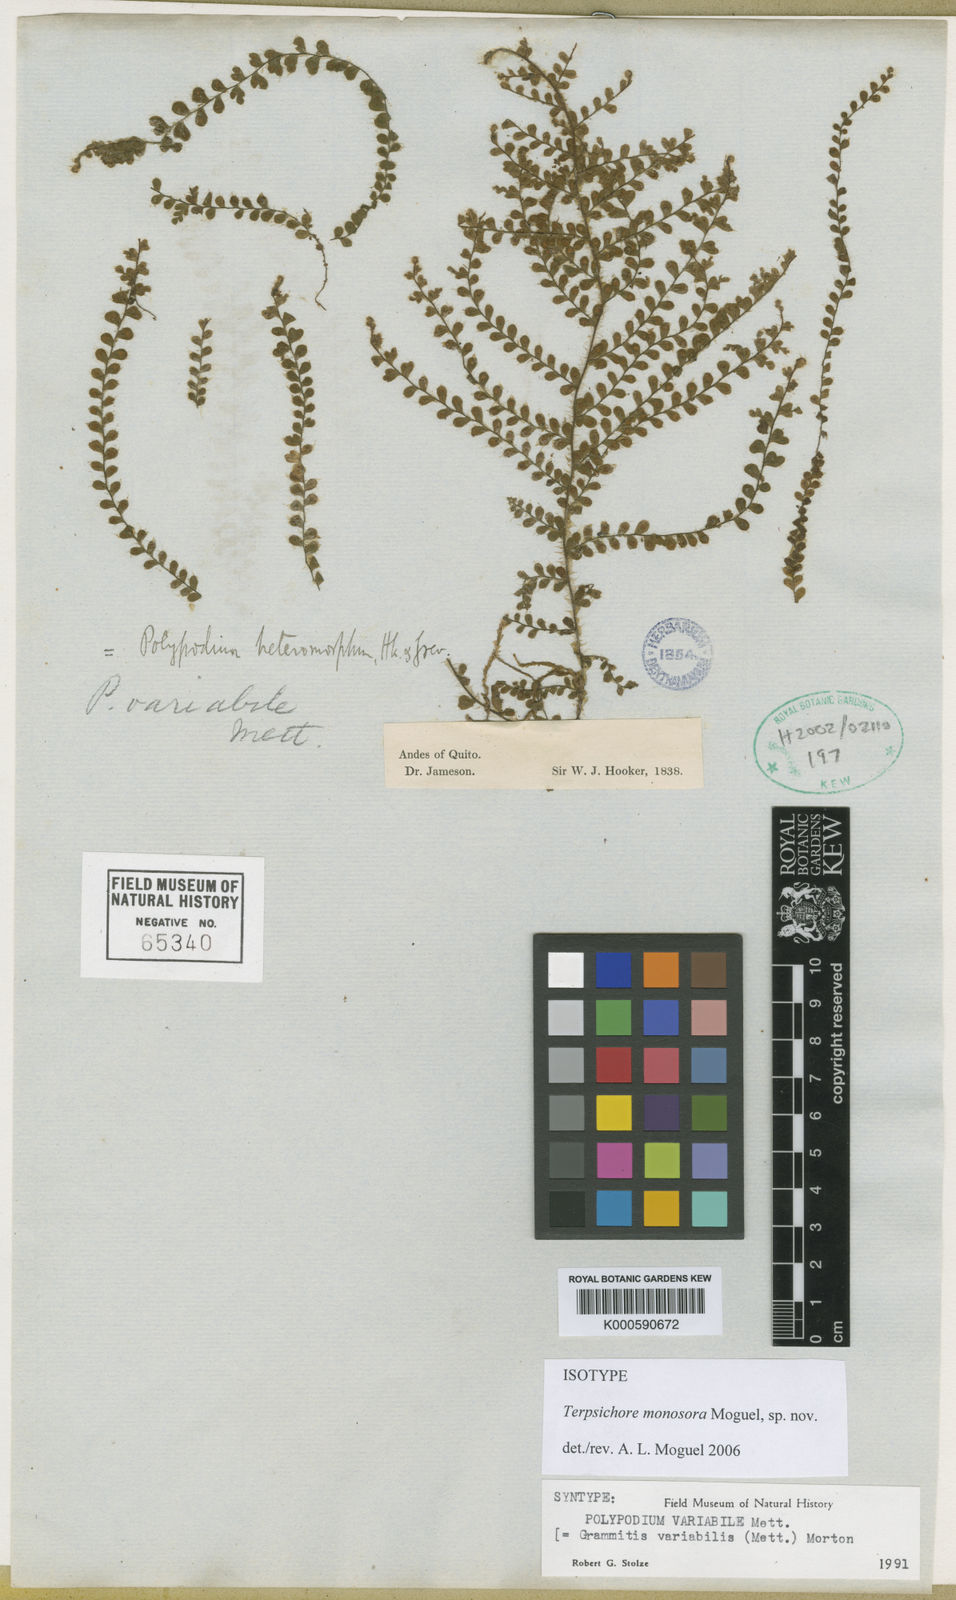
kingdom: Plantae
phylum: Tracheophyta
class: Polypodiopsida
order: Polypodiales
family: Polypodiaceae
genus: Alansmia
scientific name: Alansmia monosora
